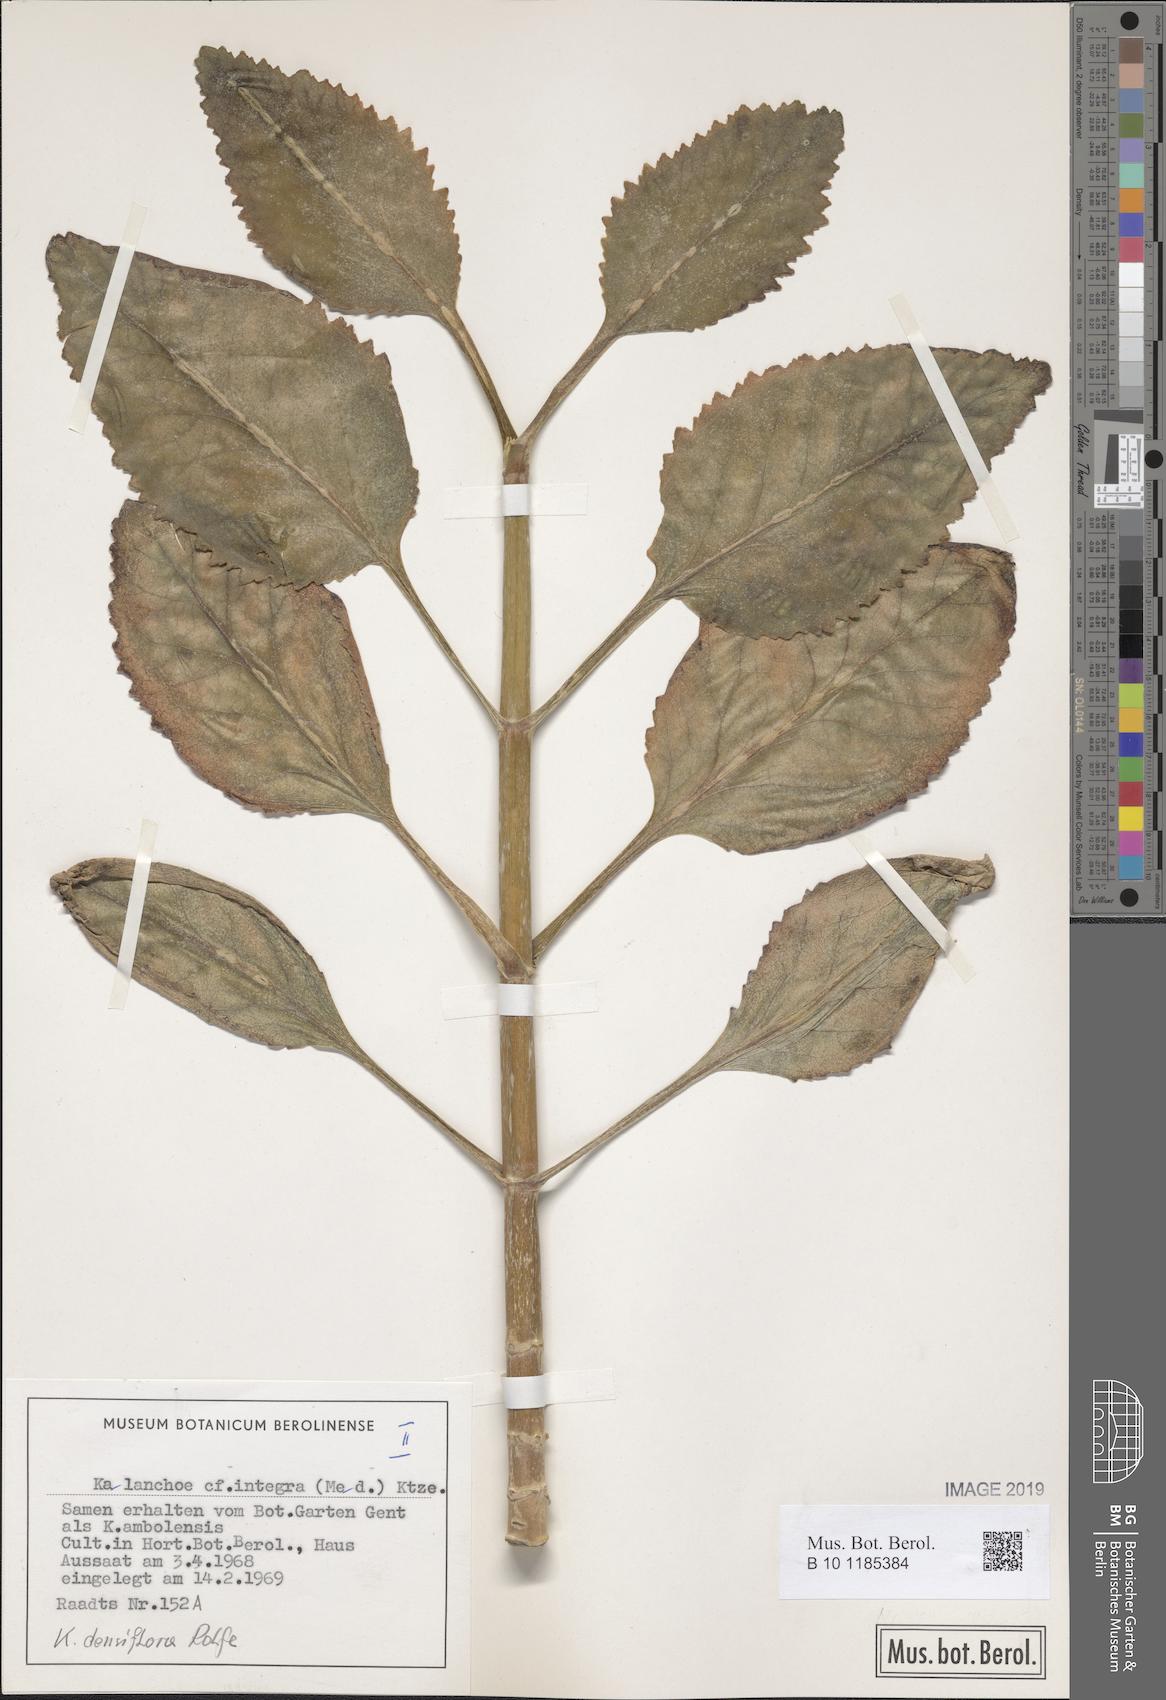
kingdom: Plantae
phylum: Tracheophyta
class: Magnoliopsida
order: Saxifragales
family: Crassulaceae
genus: Kalanchoe
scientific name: Kalanchoe densiflora
